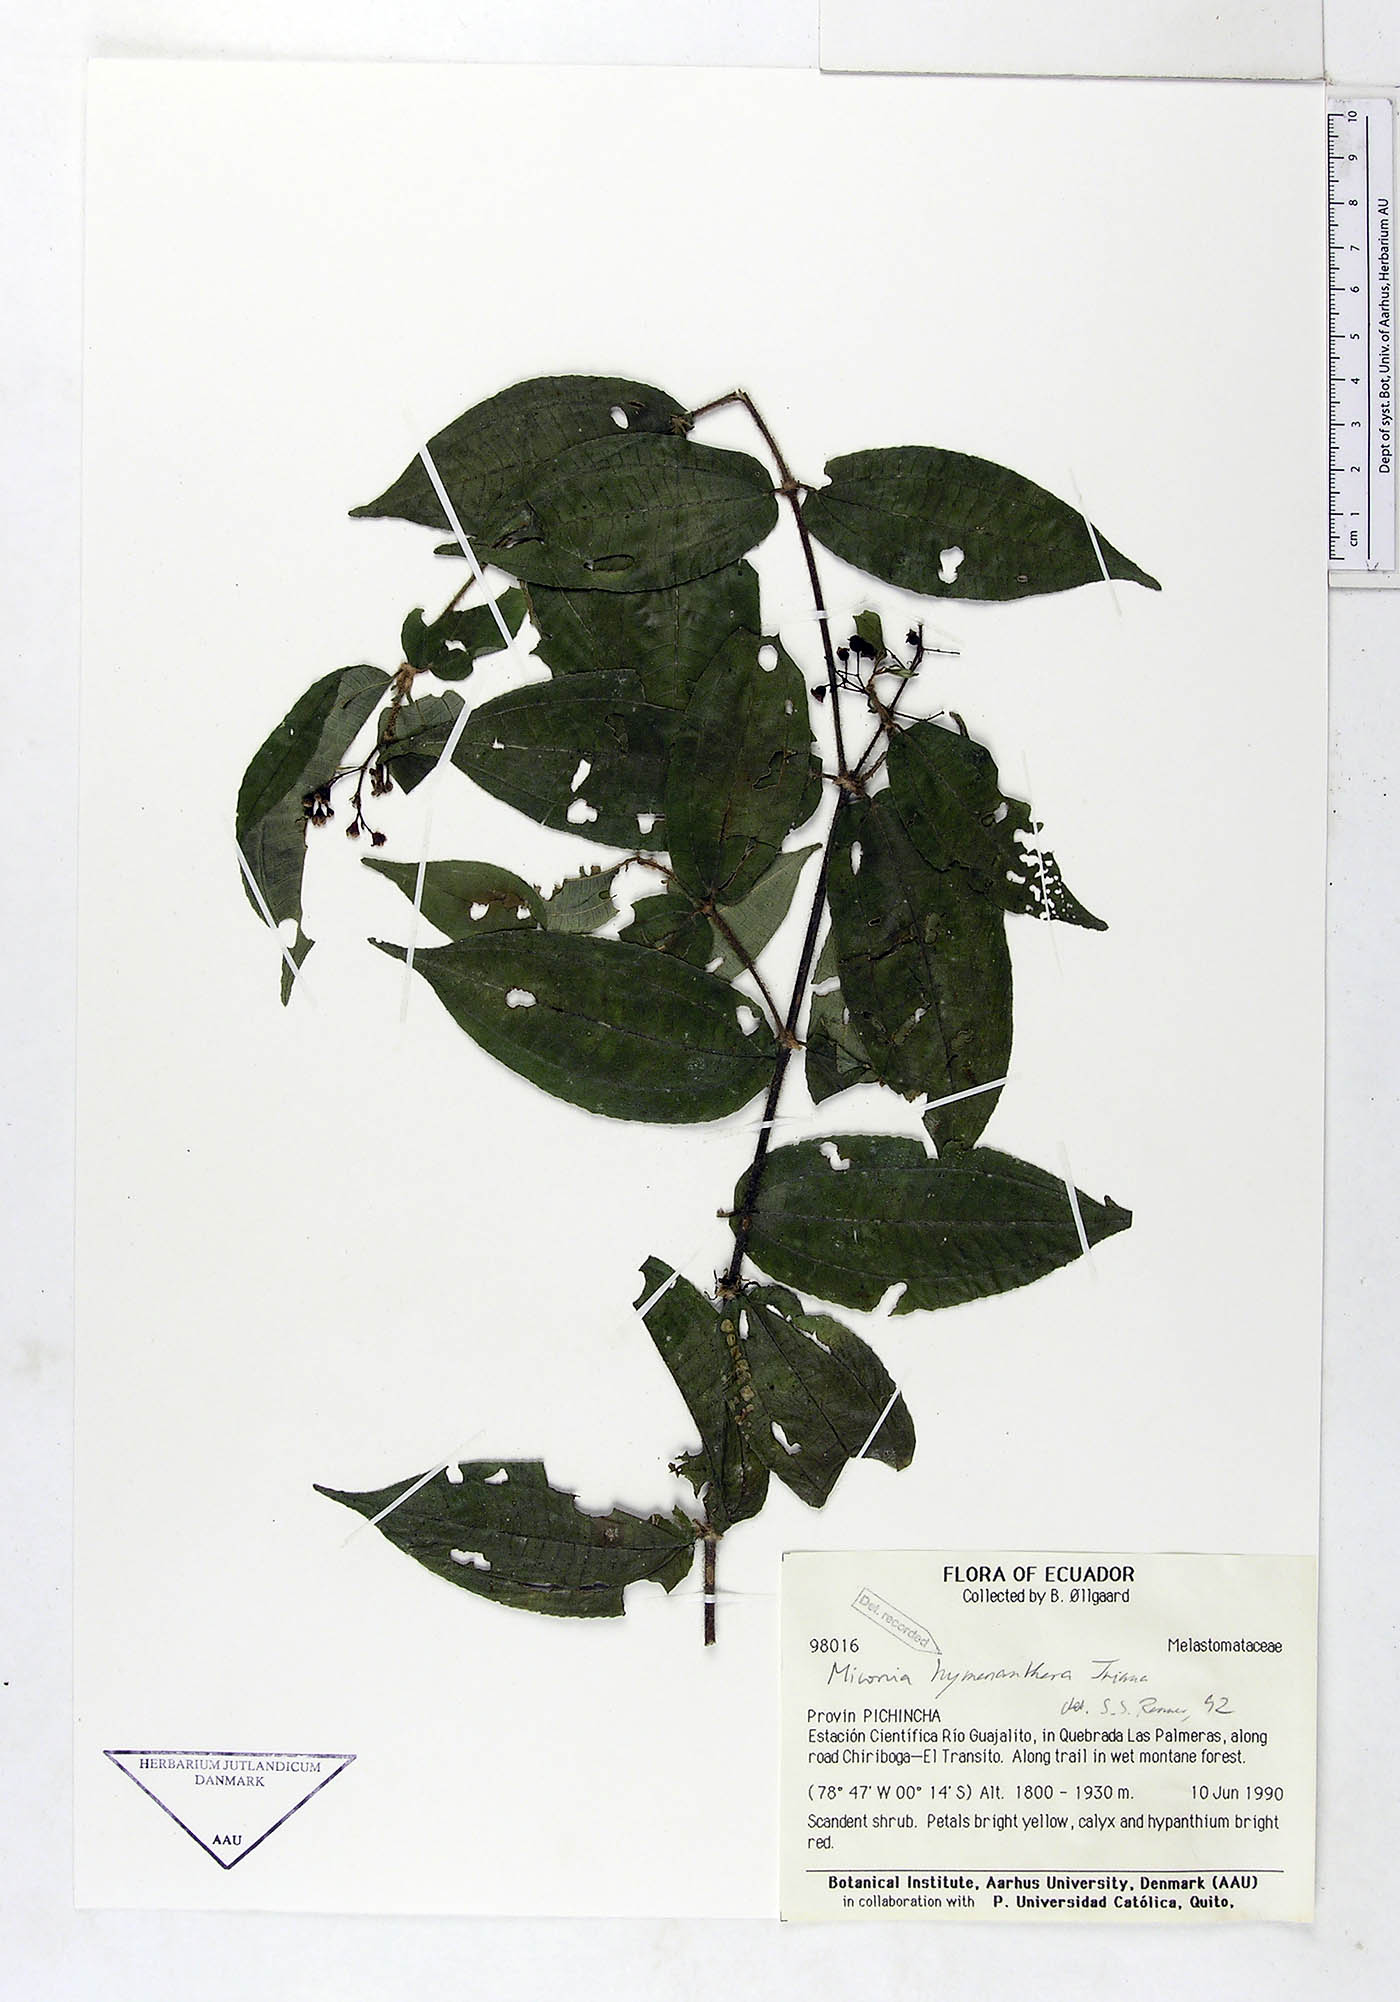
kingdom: Plantae
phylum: Tracheophyta
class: Magnoliopsida
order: Myrtales
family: Melastomataceae
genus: Miconia
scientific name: Miconia hymenanthera
